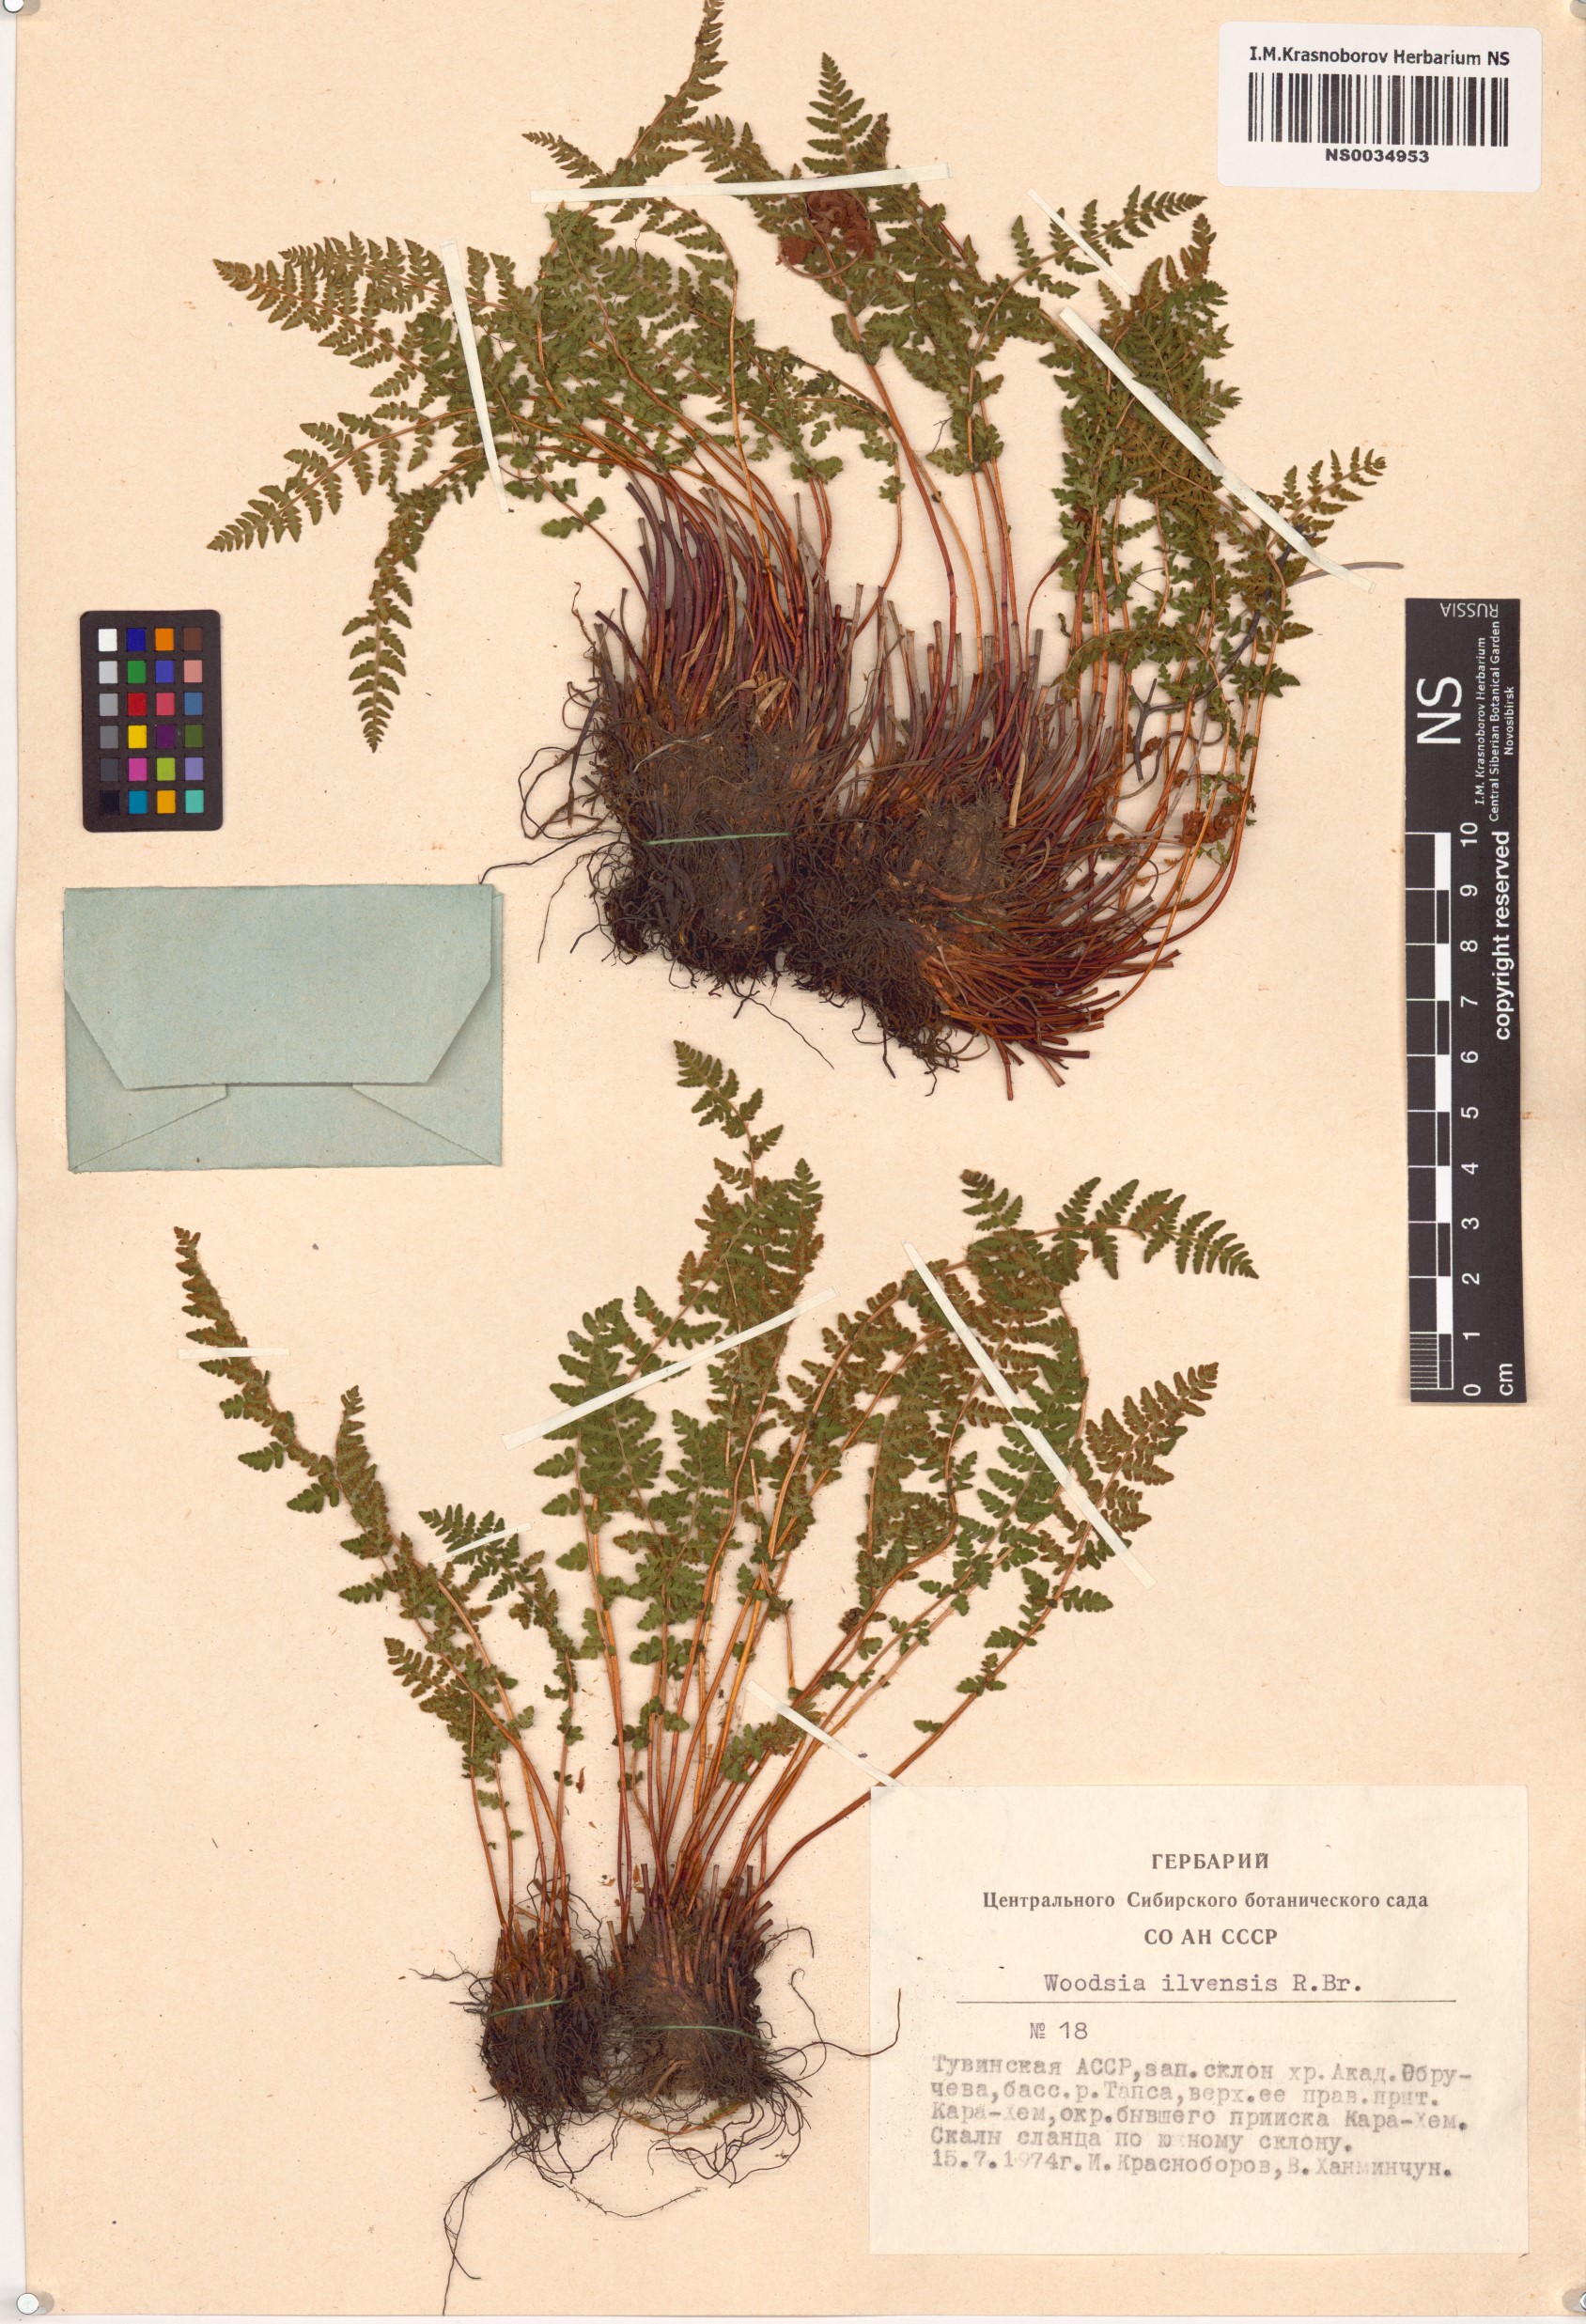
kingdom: Plantae
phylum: Tracheophyta
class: Polypodiopsida
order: Polypodiales
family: Woodsiaceae
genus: Woodsia
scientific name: Woodsia ilvensis
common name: Fragrant woodsia
